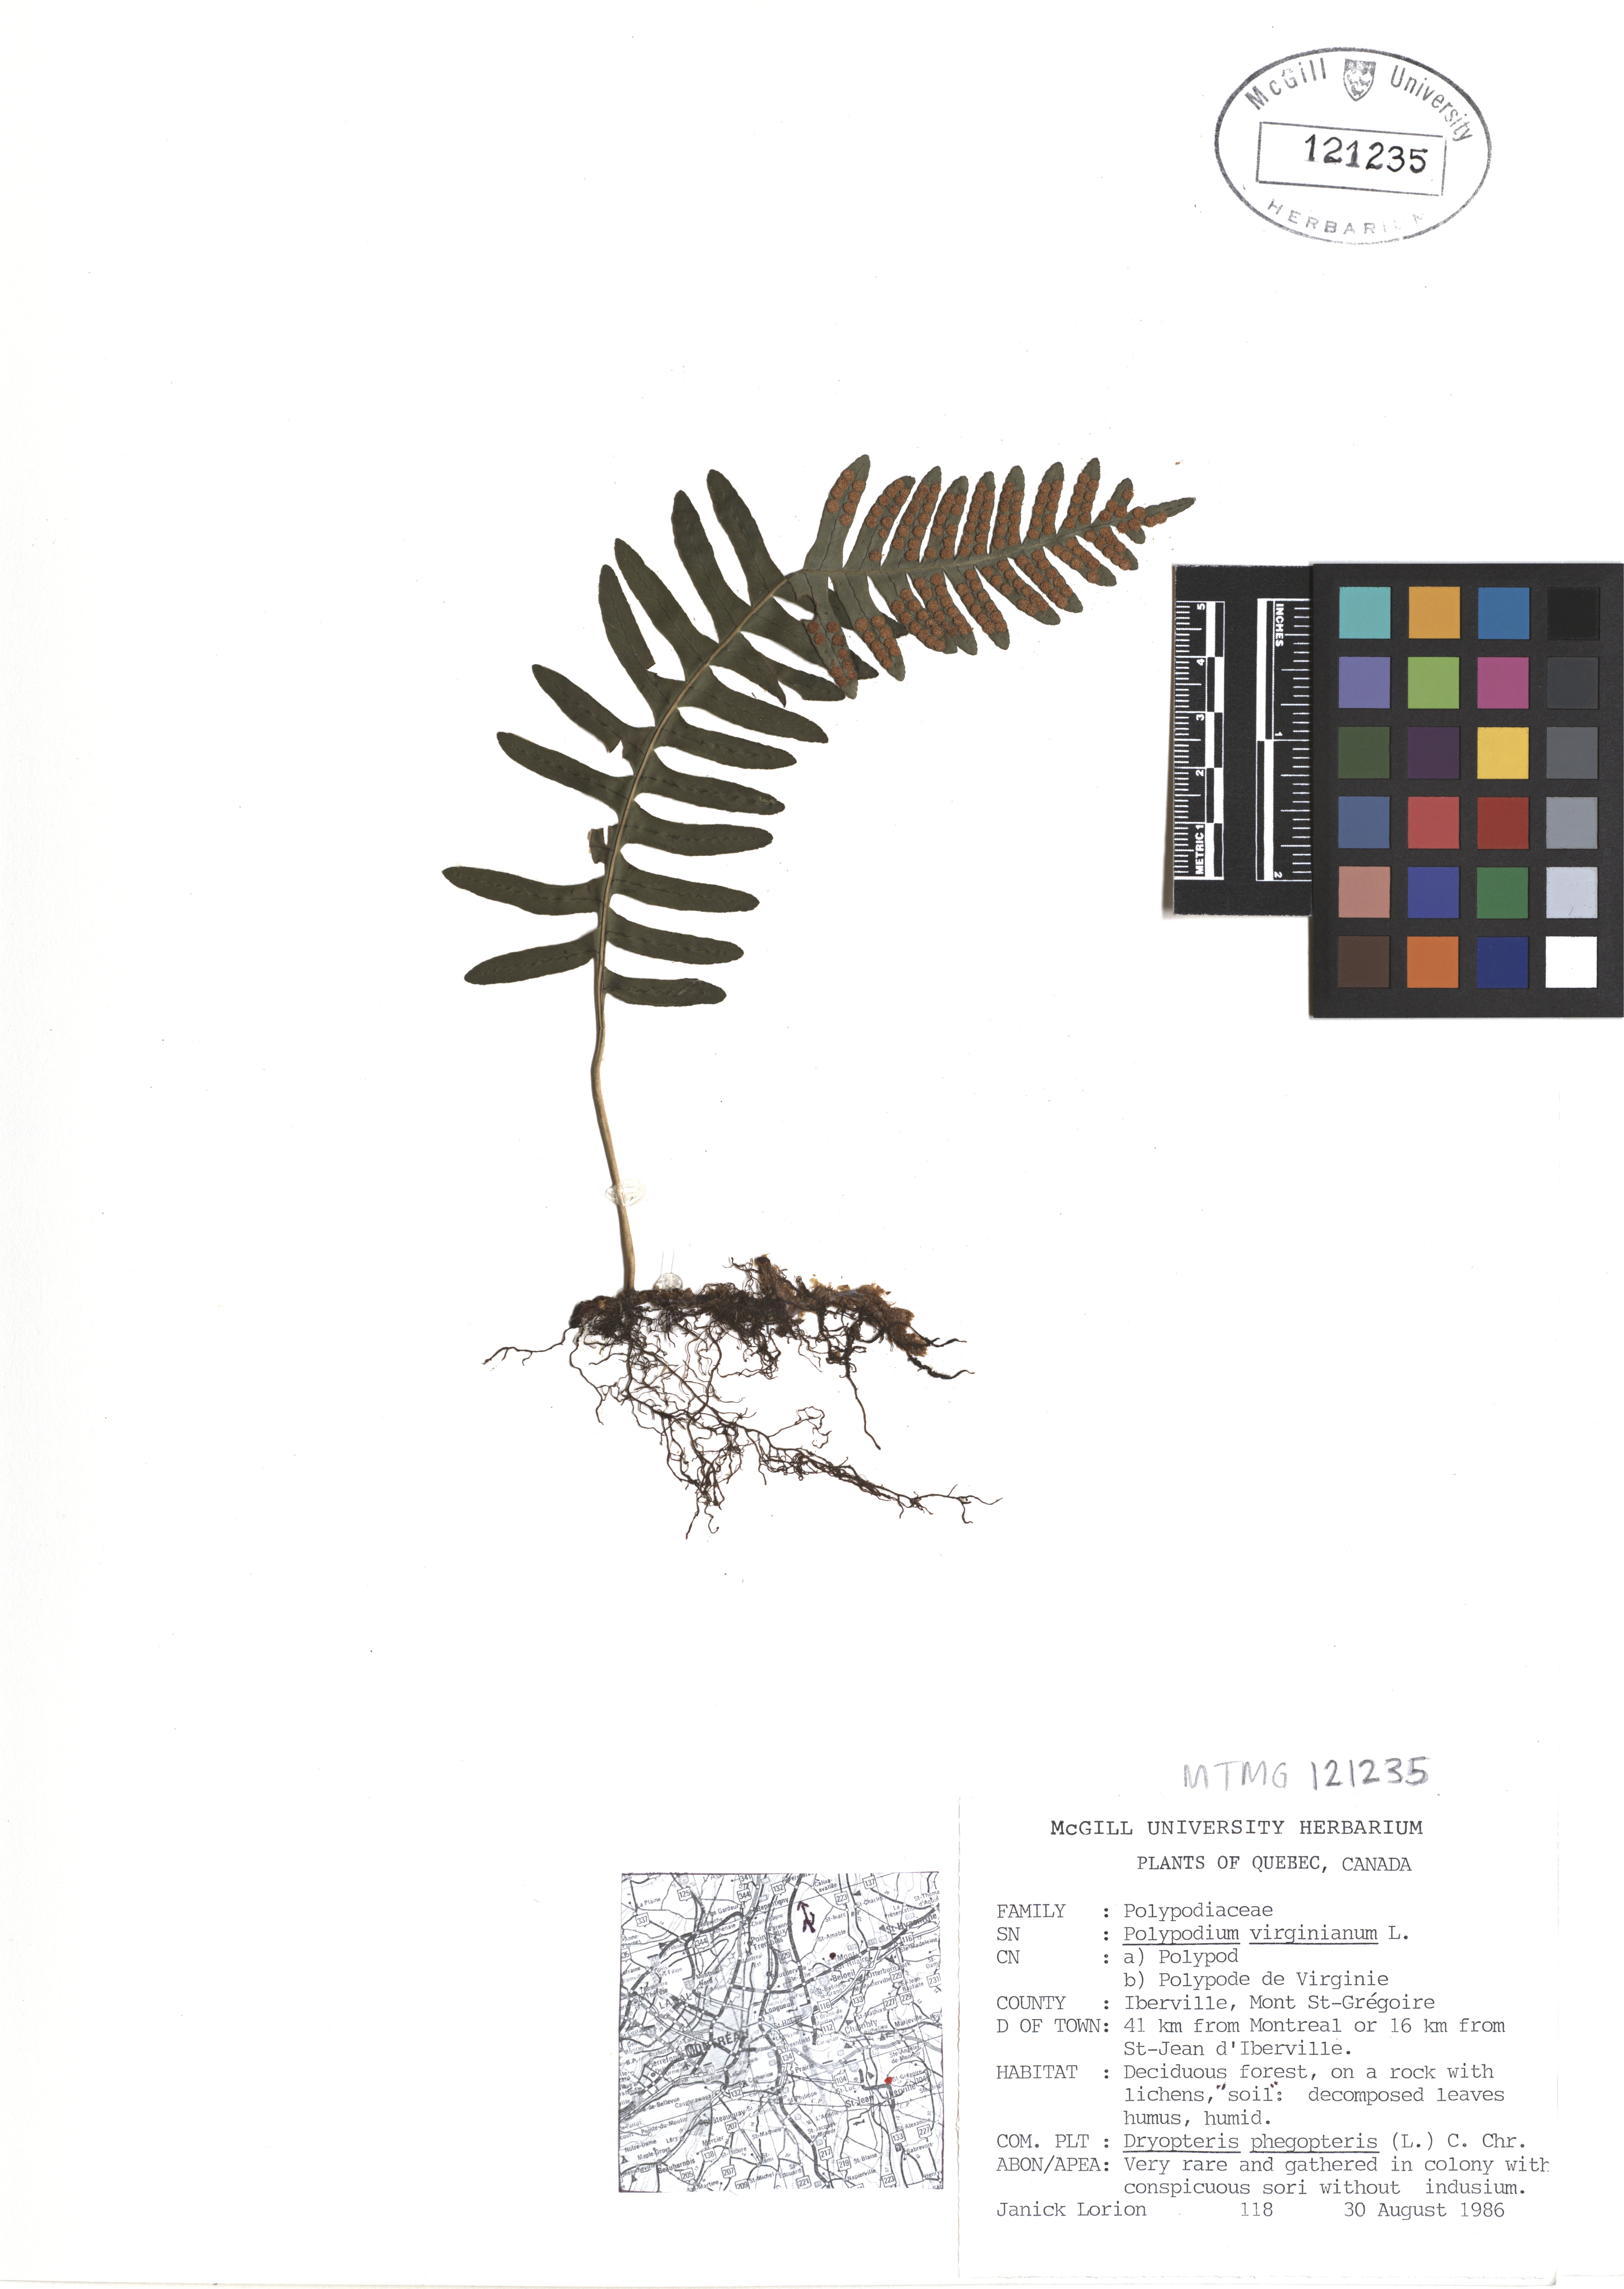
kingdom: Plantae
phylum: Tracheophyta
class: Polypodiopsida
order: Polypodiales
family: Polypodiaceae
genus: Polypodium
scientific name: Polypodium virginianum
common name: American wall fern
